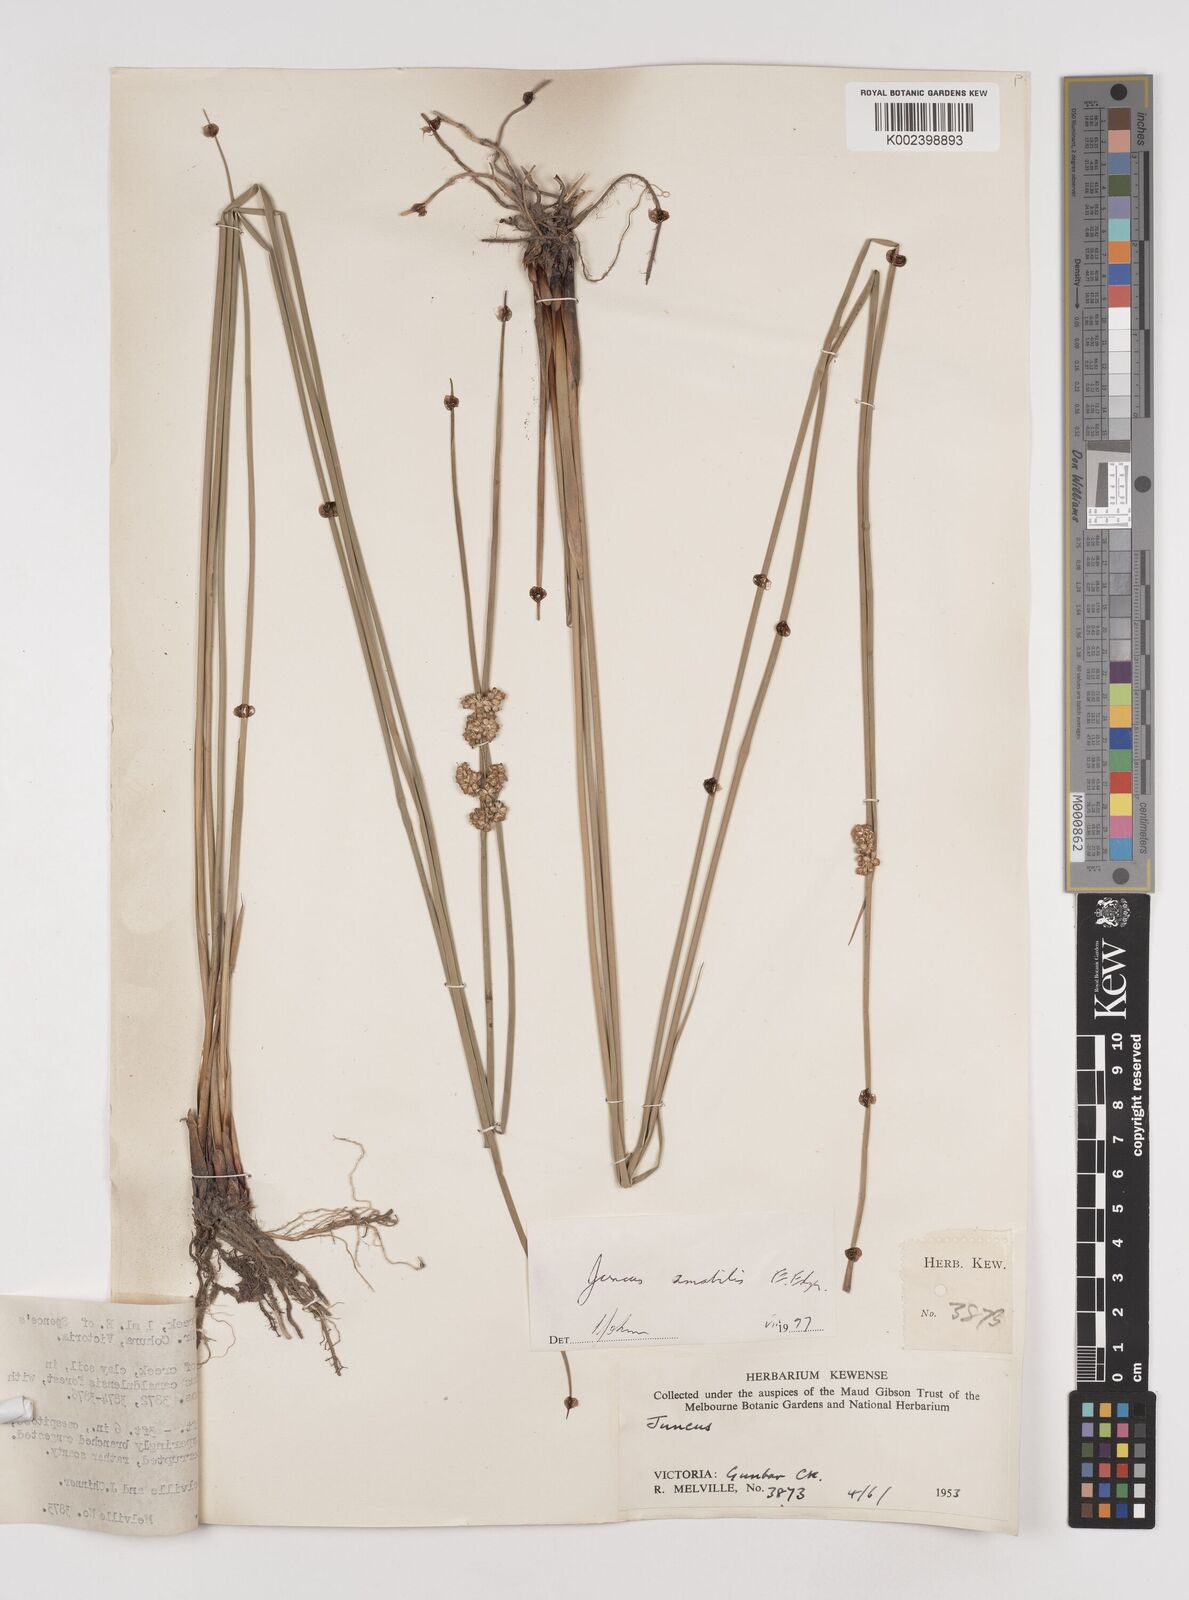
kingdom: Plantae
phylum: Tracheophyta
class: Liliopsida
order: Poales
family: Juncaceae
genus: Juncus
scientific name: Juncus amabilis
